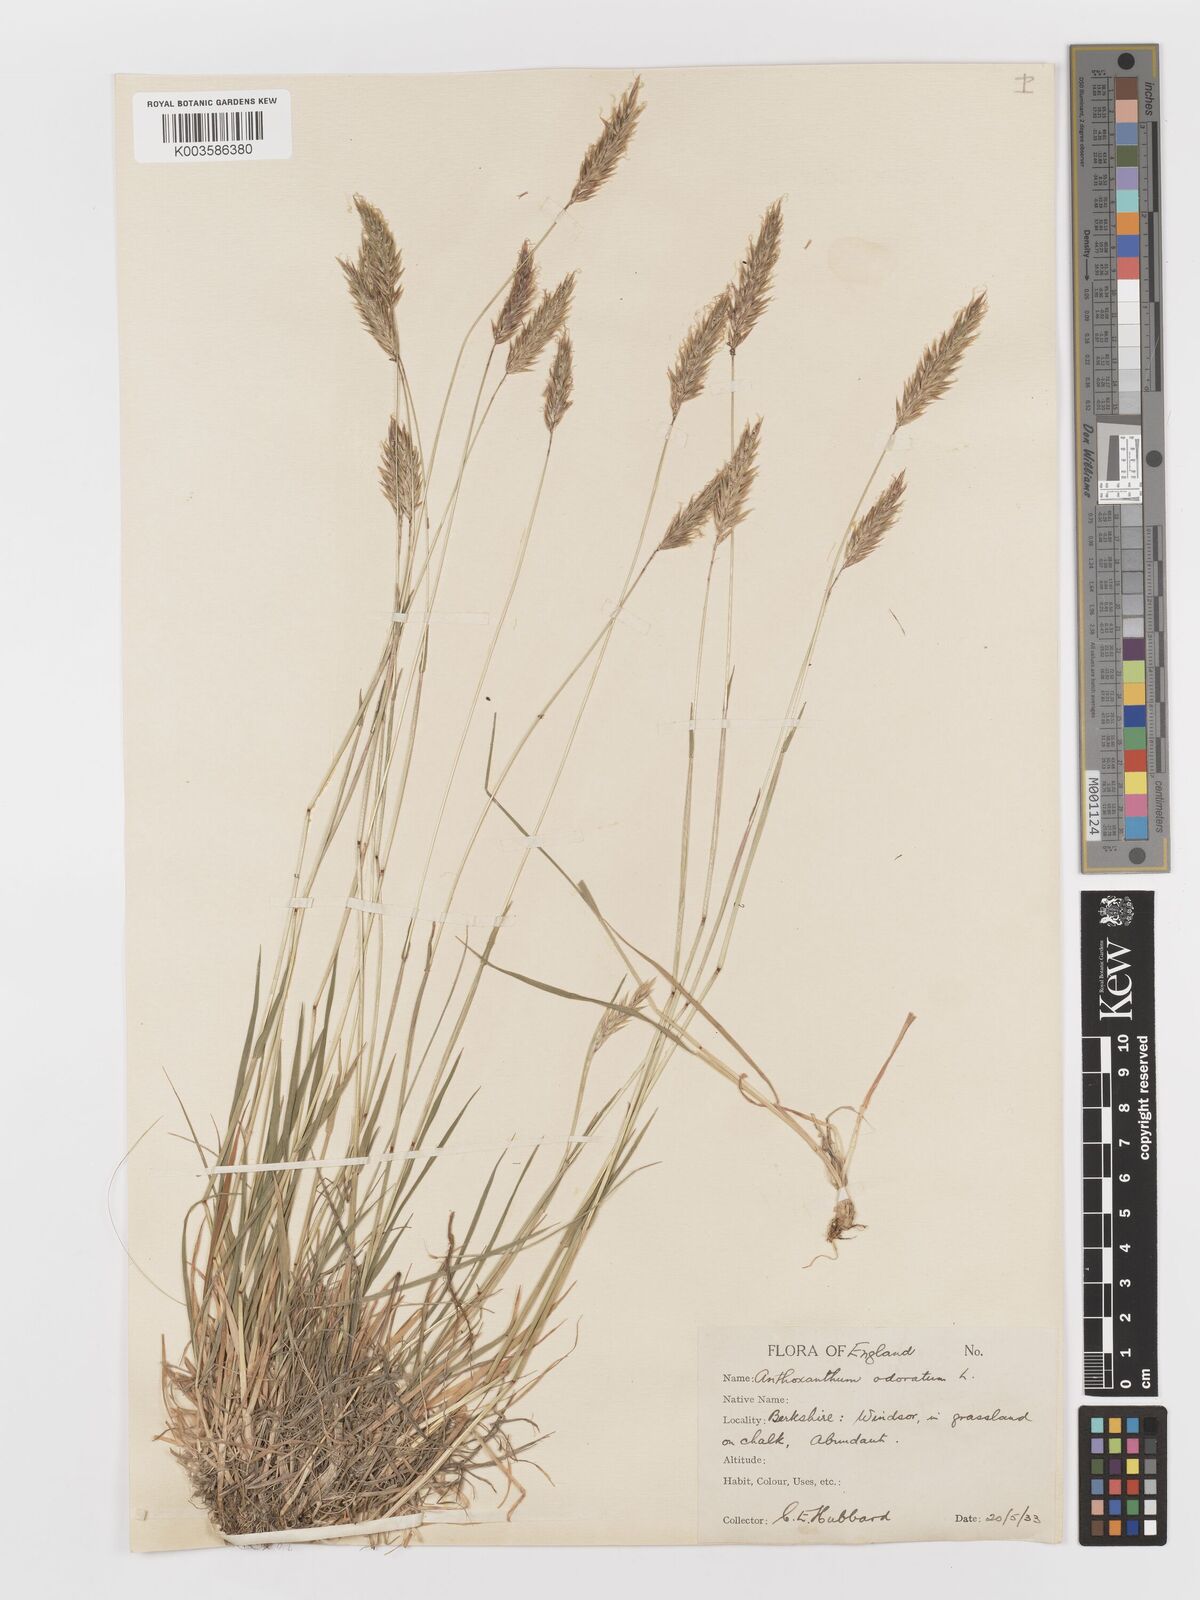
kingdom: Plantae
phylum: Tracheophyta
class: Liliopsida
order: Poales
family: Poaceae
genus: Anthoxanthum
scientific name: Anthoxanthum odoratum
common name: Sweet vernalgrass
